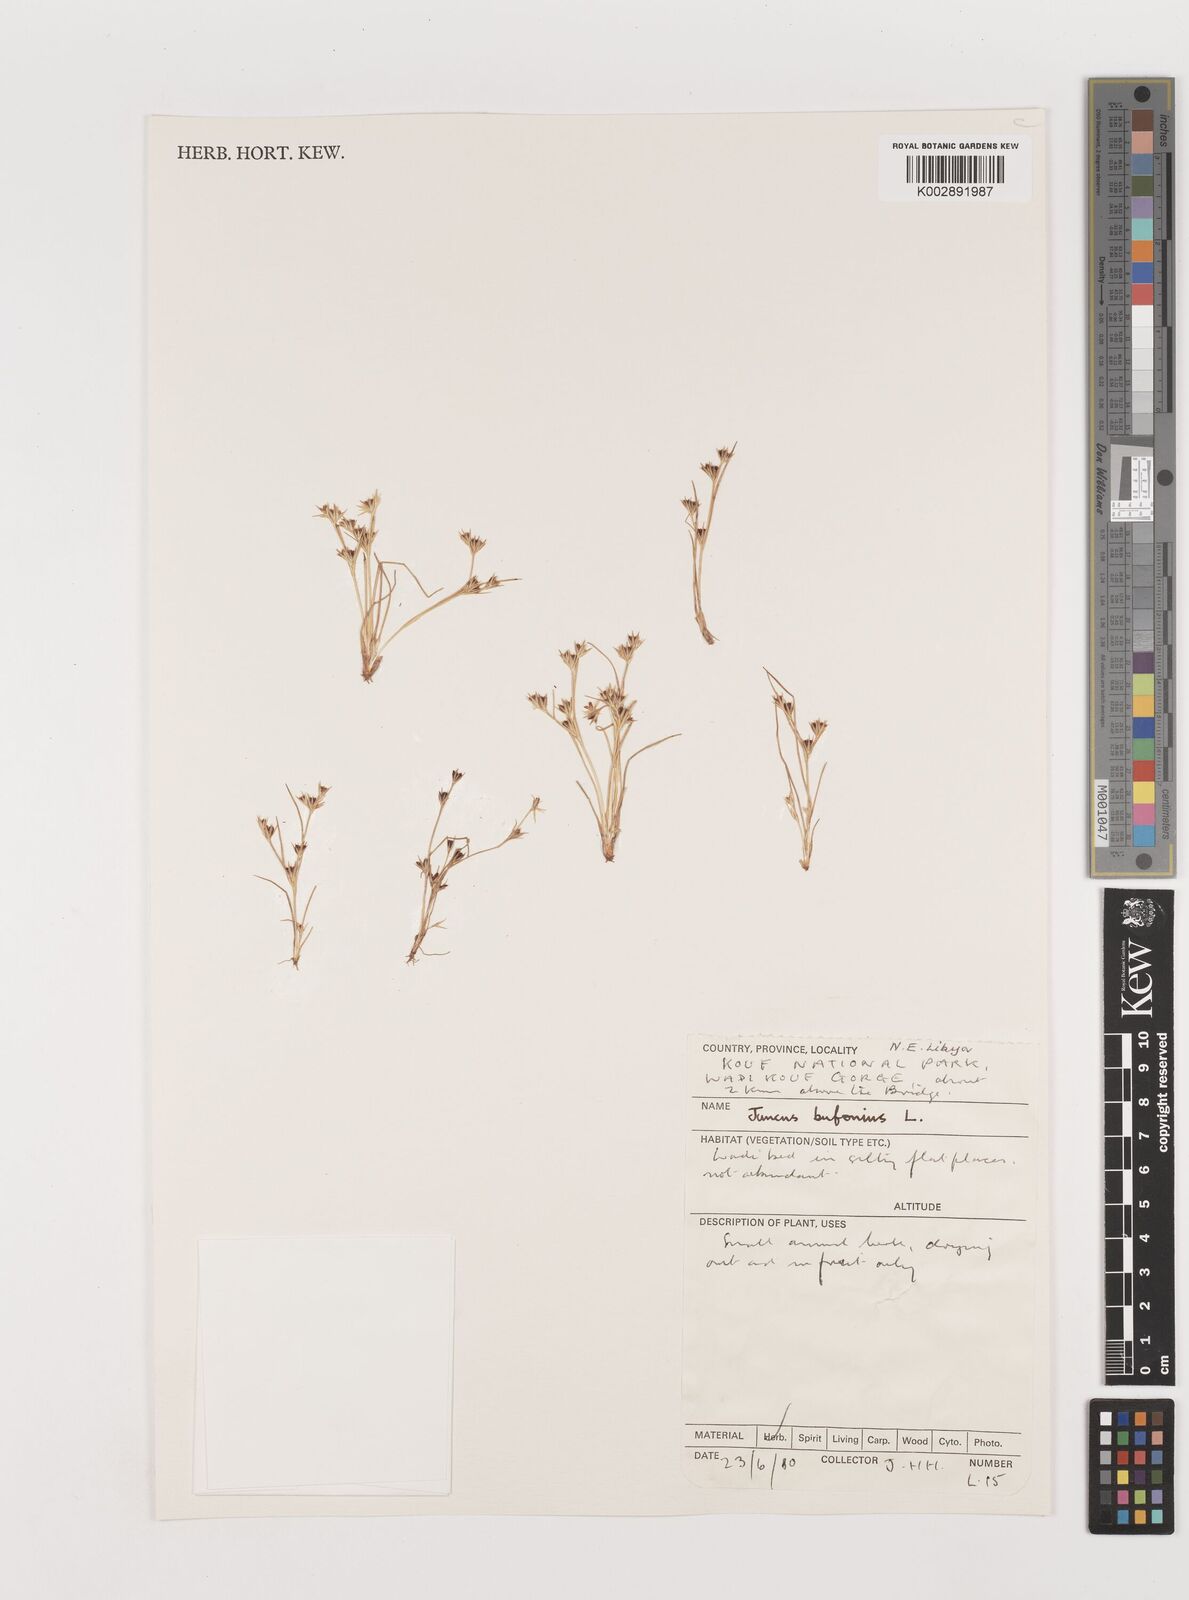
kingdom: Plantae
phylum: Tracheophyta
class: Liliopsida
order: Poales
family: Juncaceae
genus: Juncus
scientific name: Juncus bufonius
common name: Toad rush
